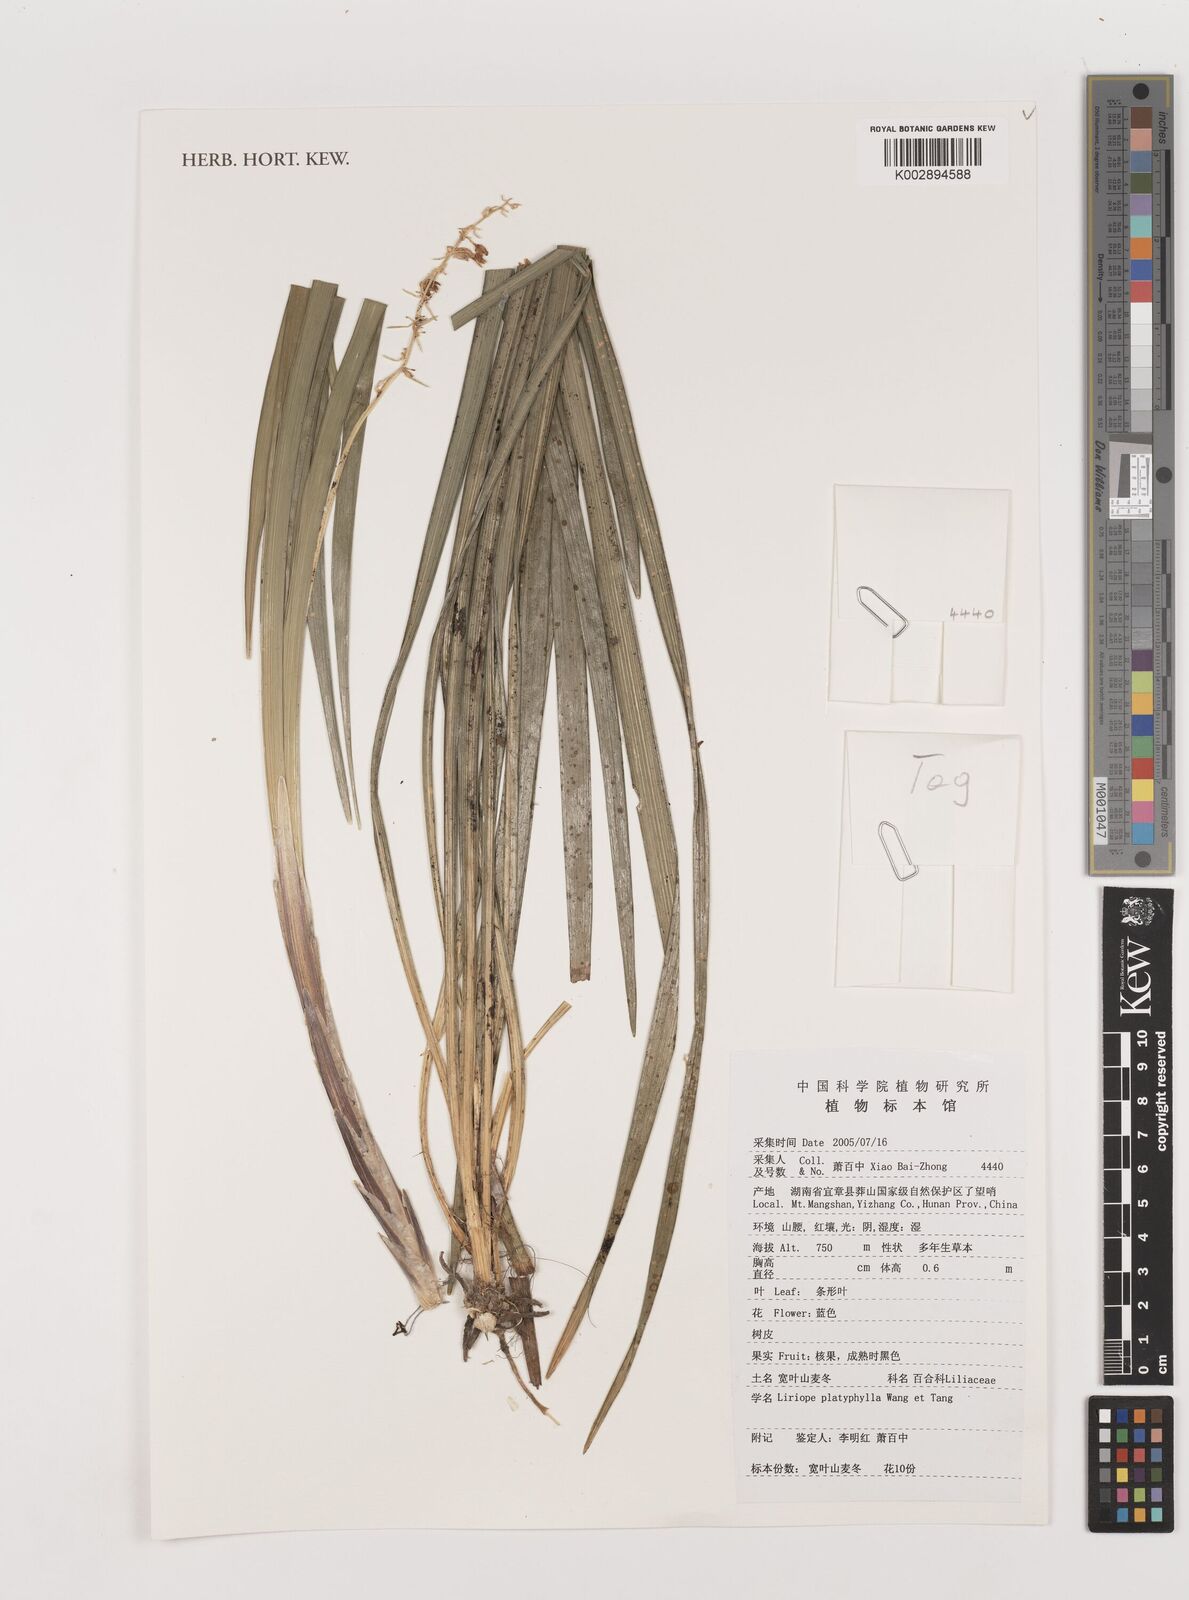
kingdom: Plantae
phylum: Tracheophyta
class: Liliopsida
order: Asparagales
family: Asparagaceae
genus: Liriope
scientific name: Liriope muscari
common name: Big blue lilyturf
